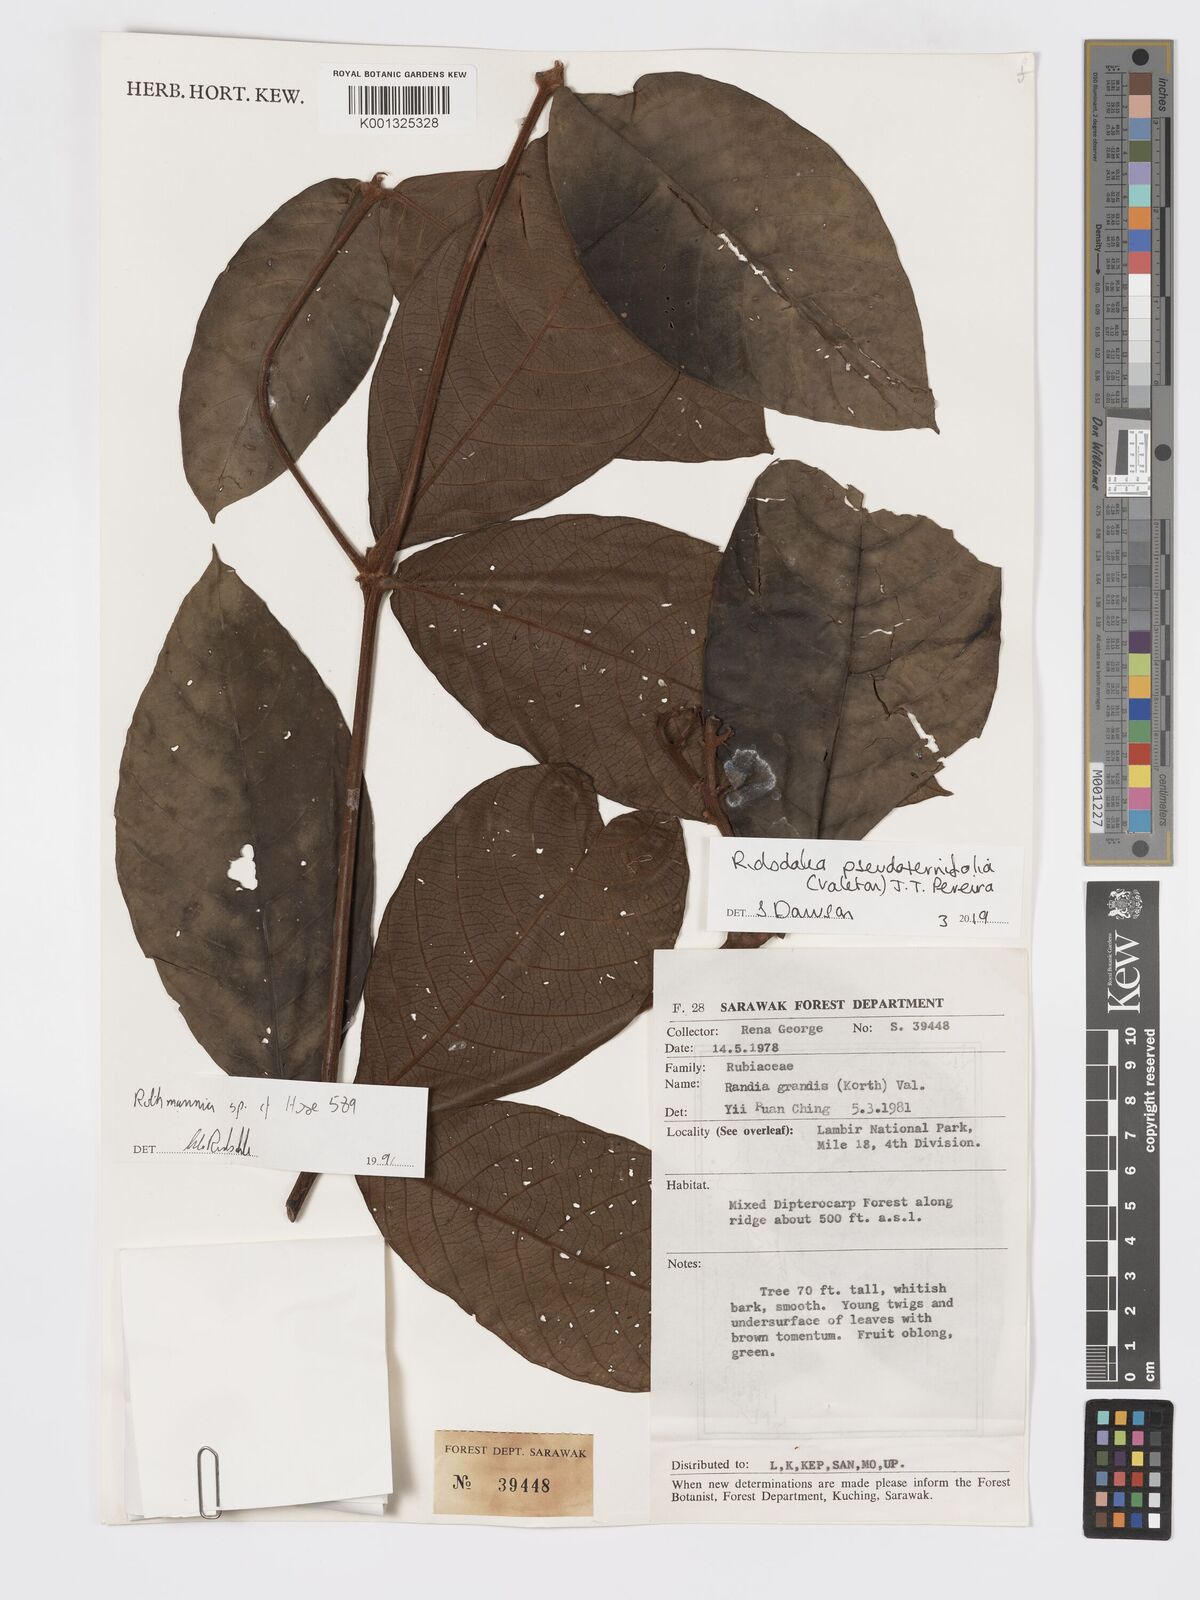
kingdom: Plantae
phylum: Tracheophyta
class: Magnoliopsida
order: Gentianales
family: Rubiaceae
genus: Ridsdalea
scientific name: Ridsdalea pseudoternifolia
